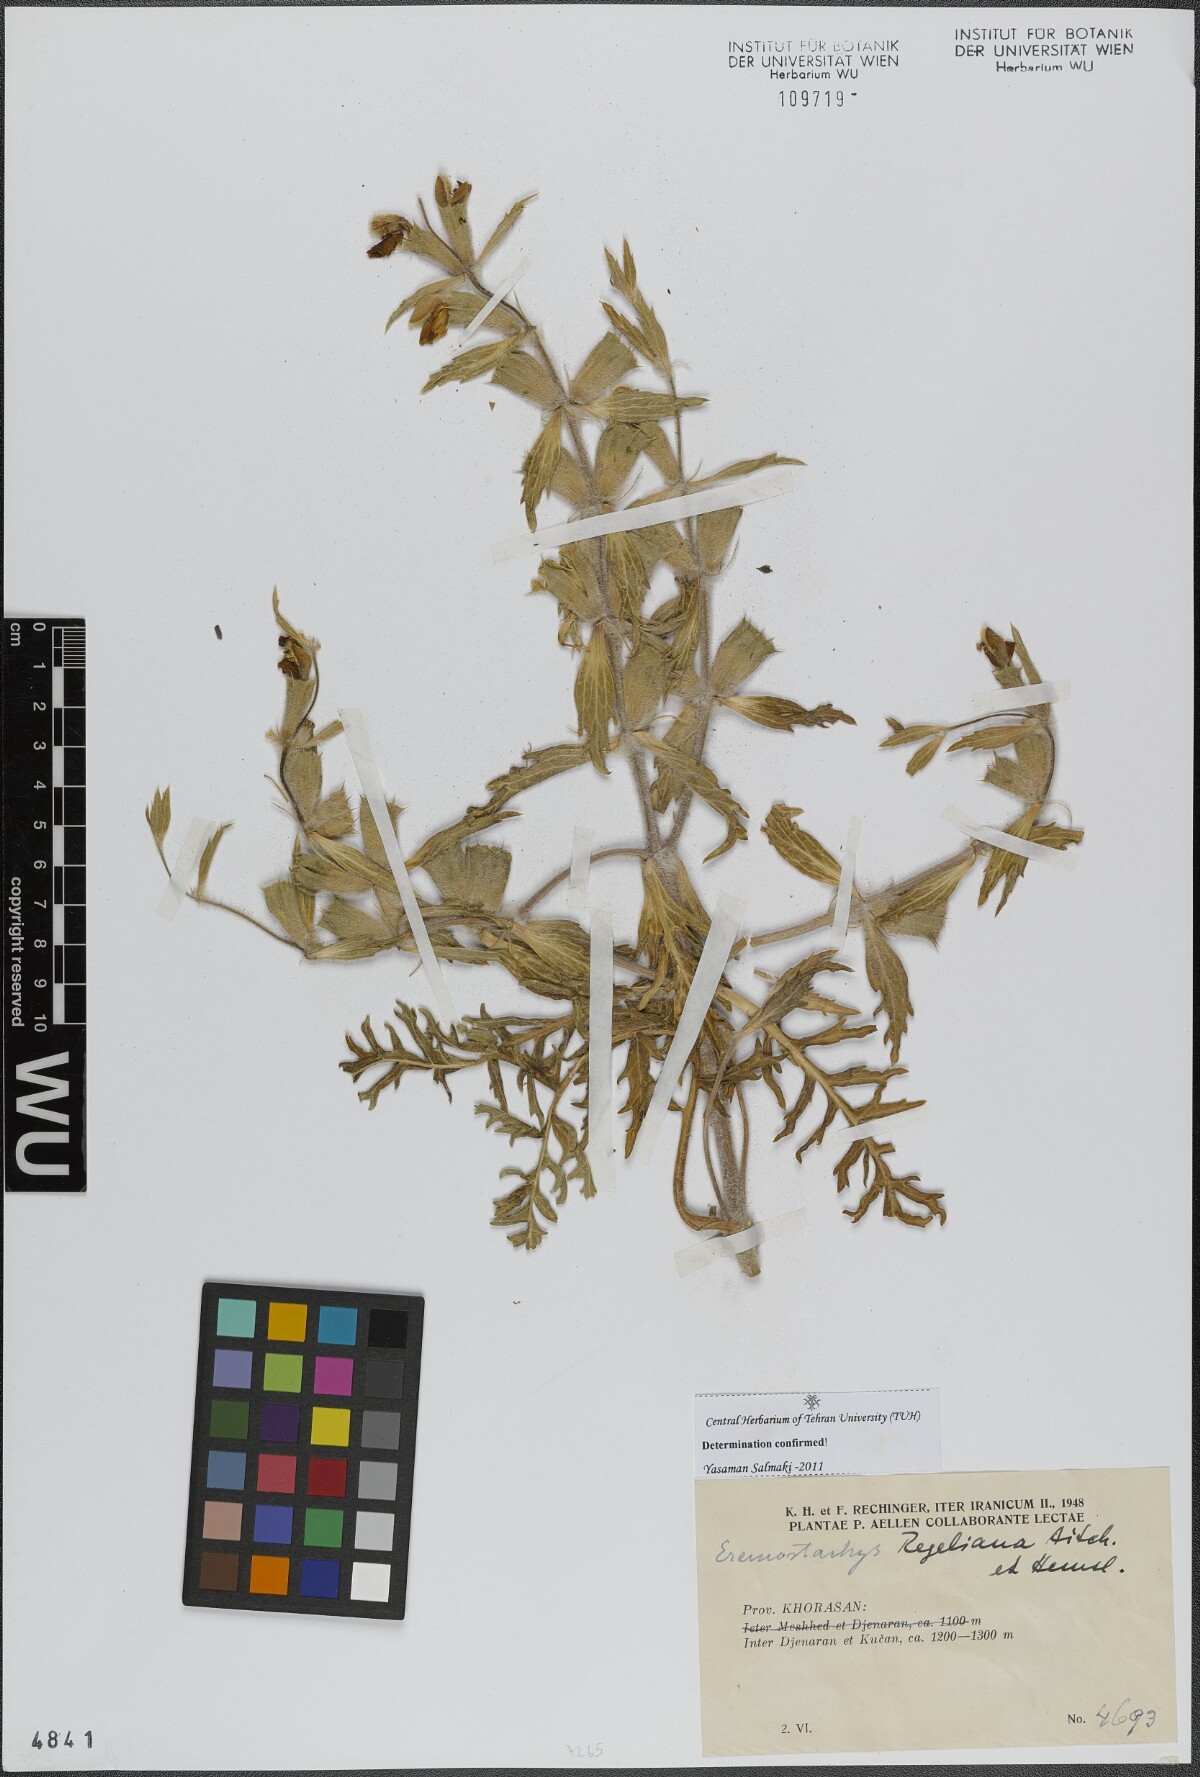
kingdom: Plantae
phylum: Tracheophyta
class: Magnoliopsida
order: Lamiales
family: Lamiaceae
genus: Phlomoides
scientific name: Phlomoides regeliana
